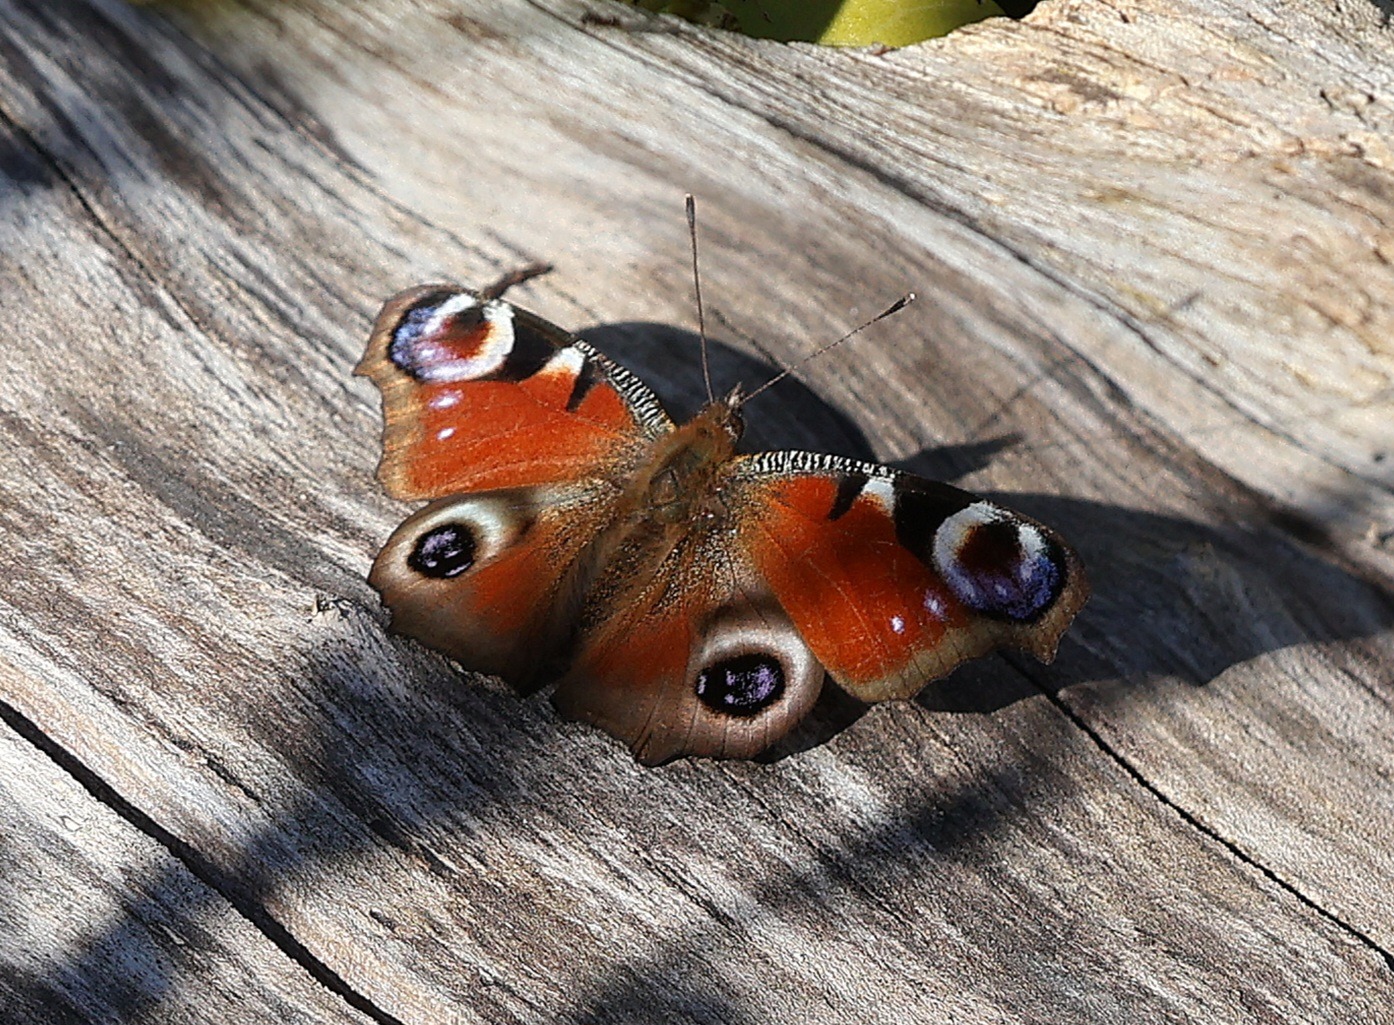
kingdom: Animalia
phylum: Arthropoda
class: Insecta
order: Lepidoptera
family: Nymphalidae
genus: Aglais
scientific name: Aglais io
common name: Dagpåfugleøje
